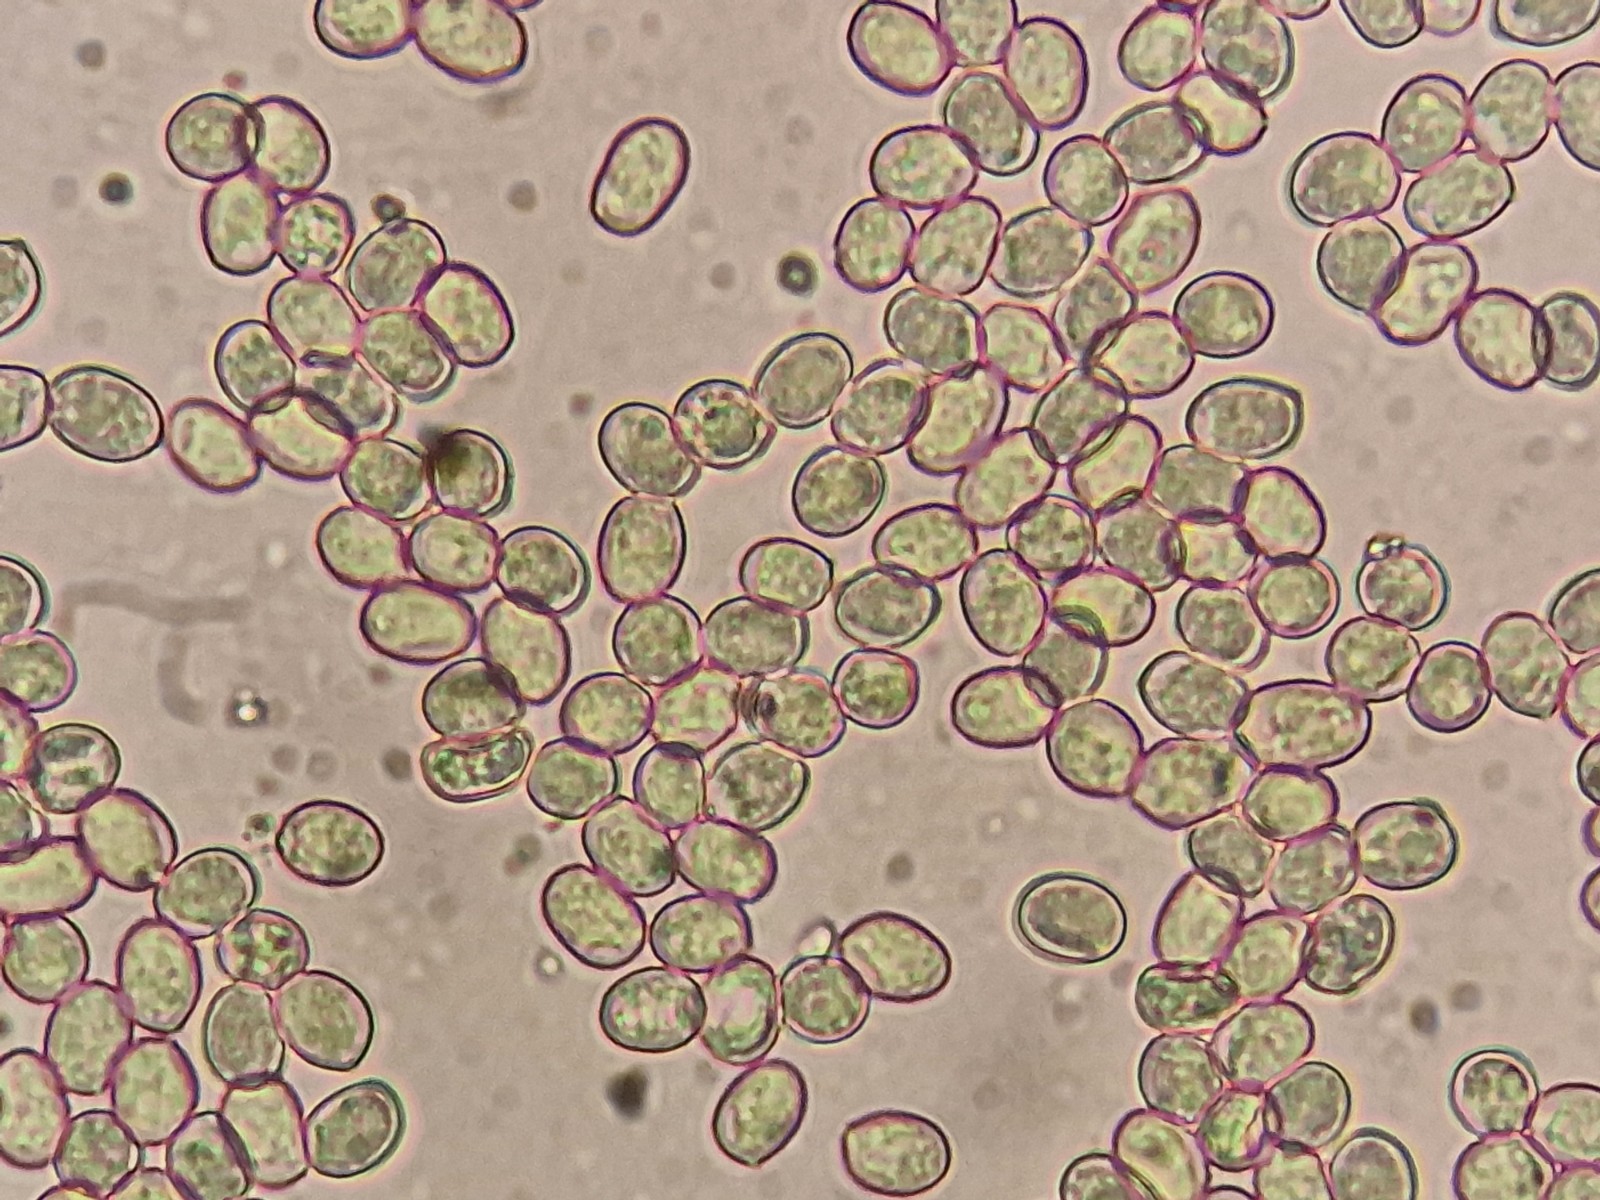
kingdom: Fungi
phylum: Basidiomycota
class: Agaricomycetes
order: Agaricales
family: Pluteaceae
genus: Pluteus
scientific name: Pluteus salicinus
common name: stiv skærmhat
